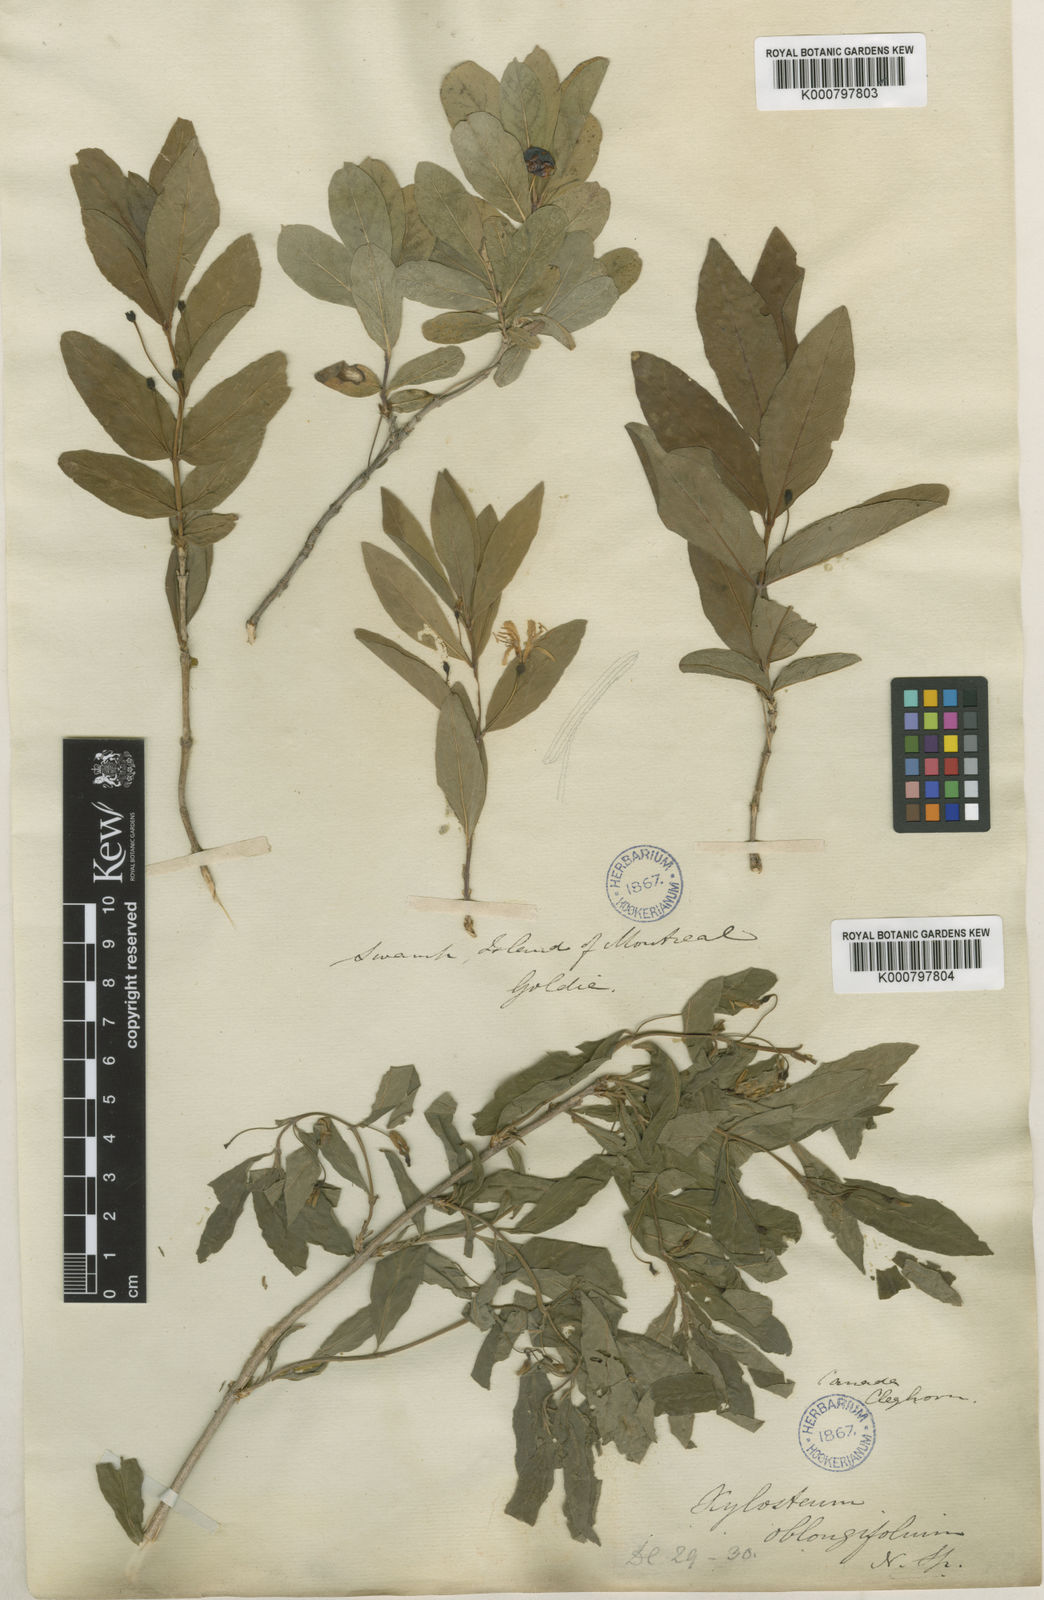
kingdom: Plantae
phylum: Tracheophyta
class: Magnoliopsida
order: Dipsacales
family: Caprifoliaceae
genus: Lonicera
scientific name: Lonicera oblongifolia
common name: Swamp fly honeysuckle
